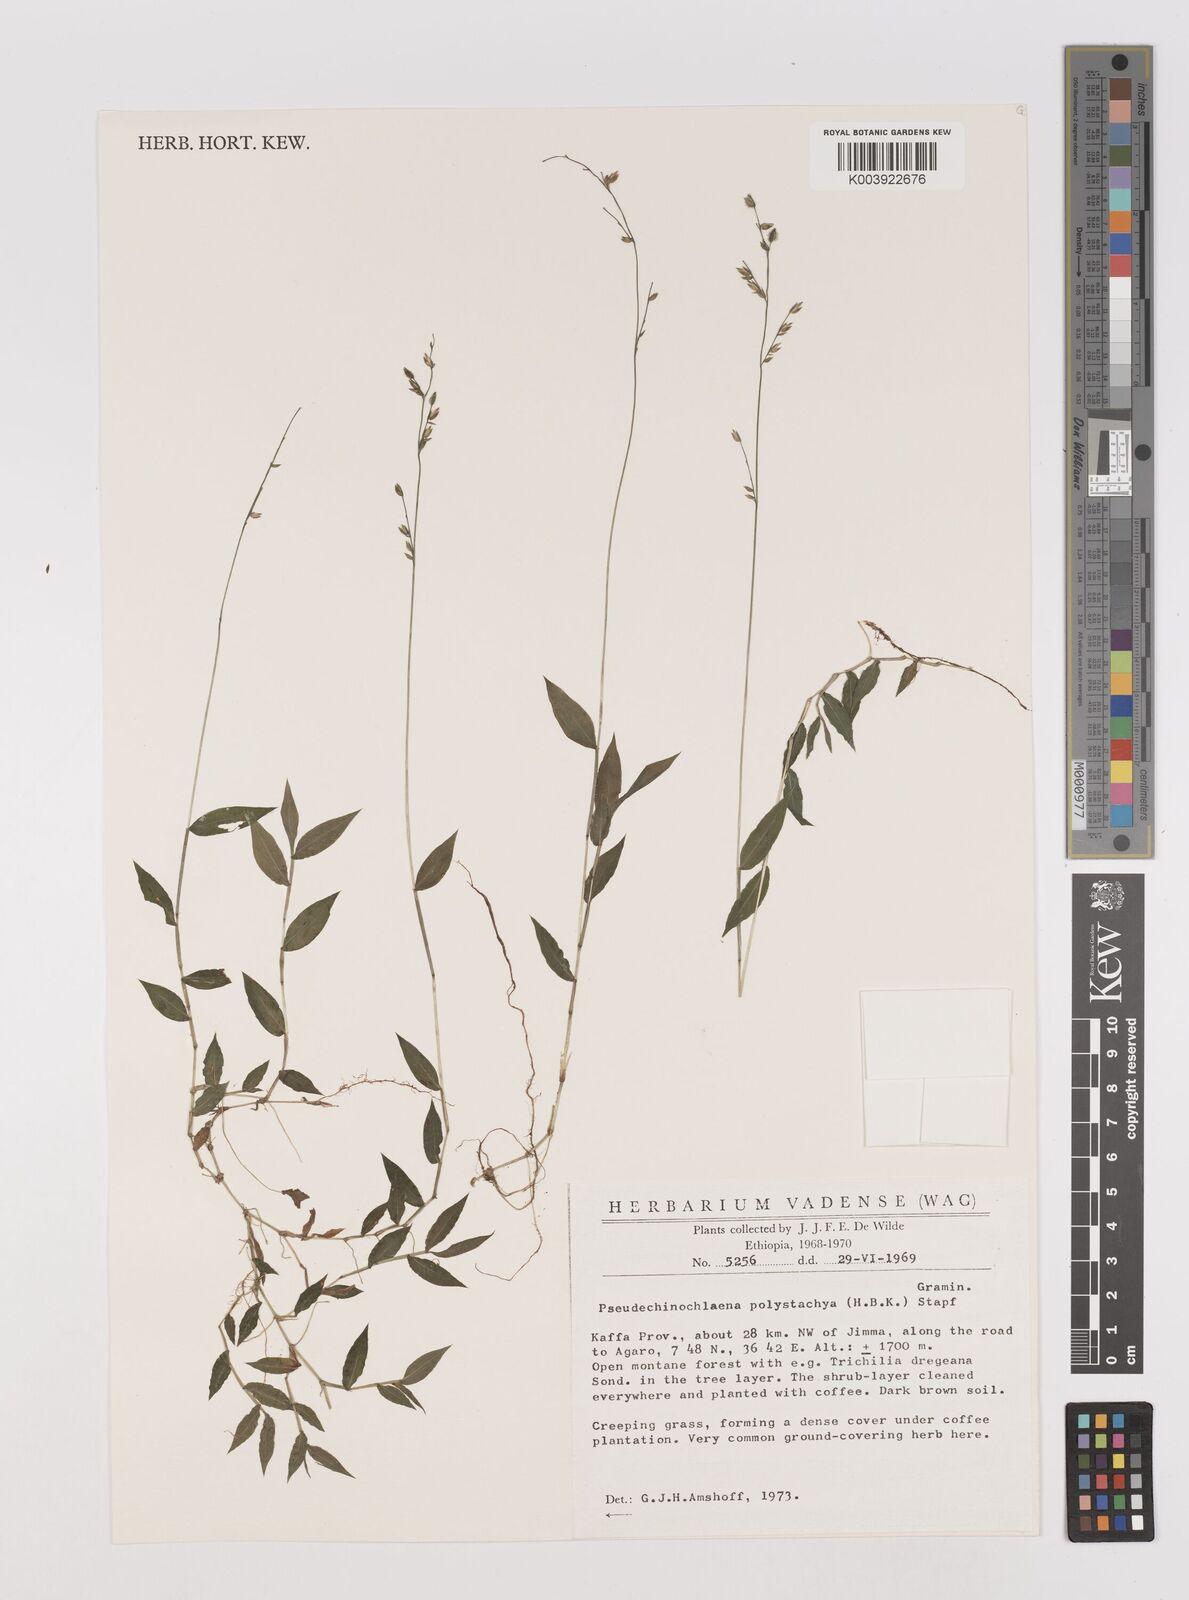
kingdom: Plantae
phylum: Tracheophyta
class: Liliopsida
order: Poales
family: Poaceae
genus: Pseudechinolaena
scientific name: Pseudechinolaena polystachya
